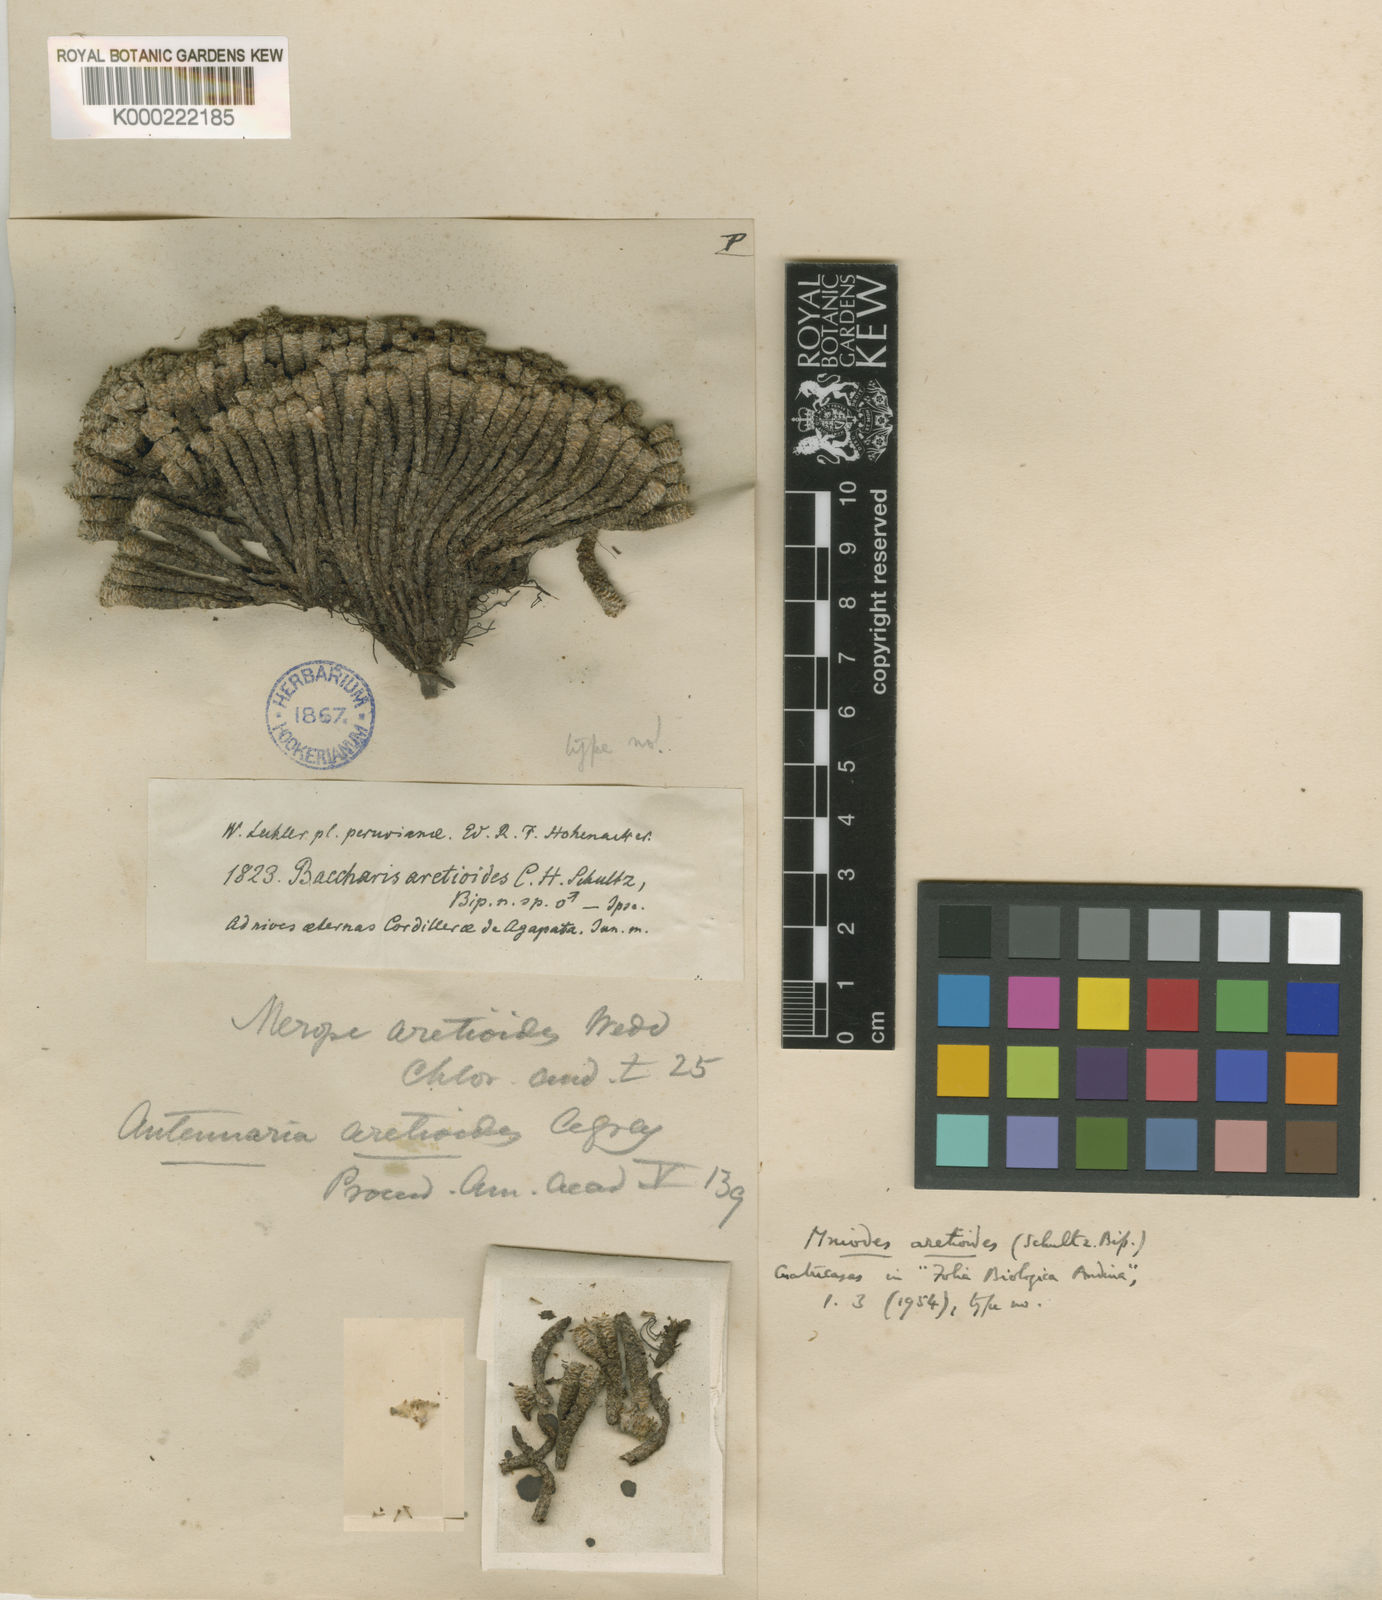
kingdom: Plantae
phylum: Tracheophyta
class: Magnoliopsida
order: Asterales
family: Asteraceae
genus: Mniodes
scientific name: Mniodes aretioides
